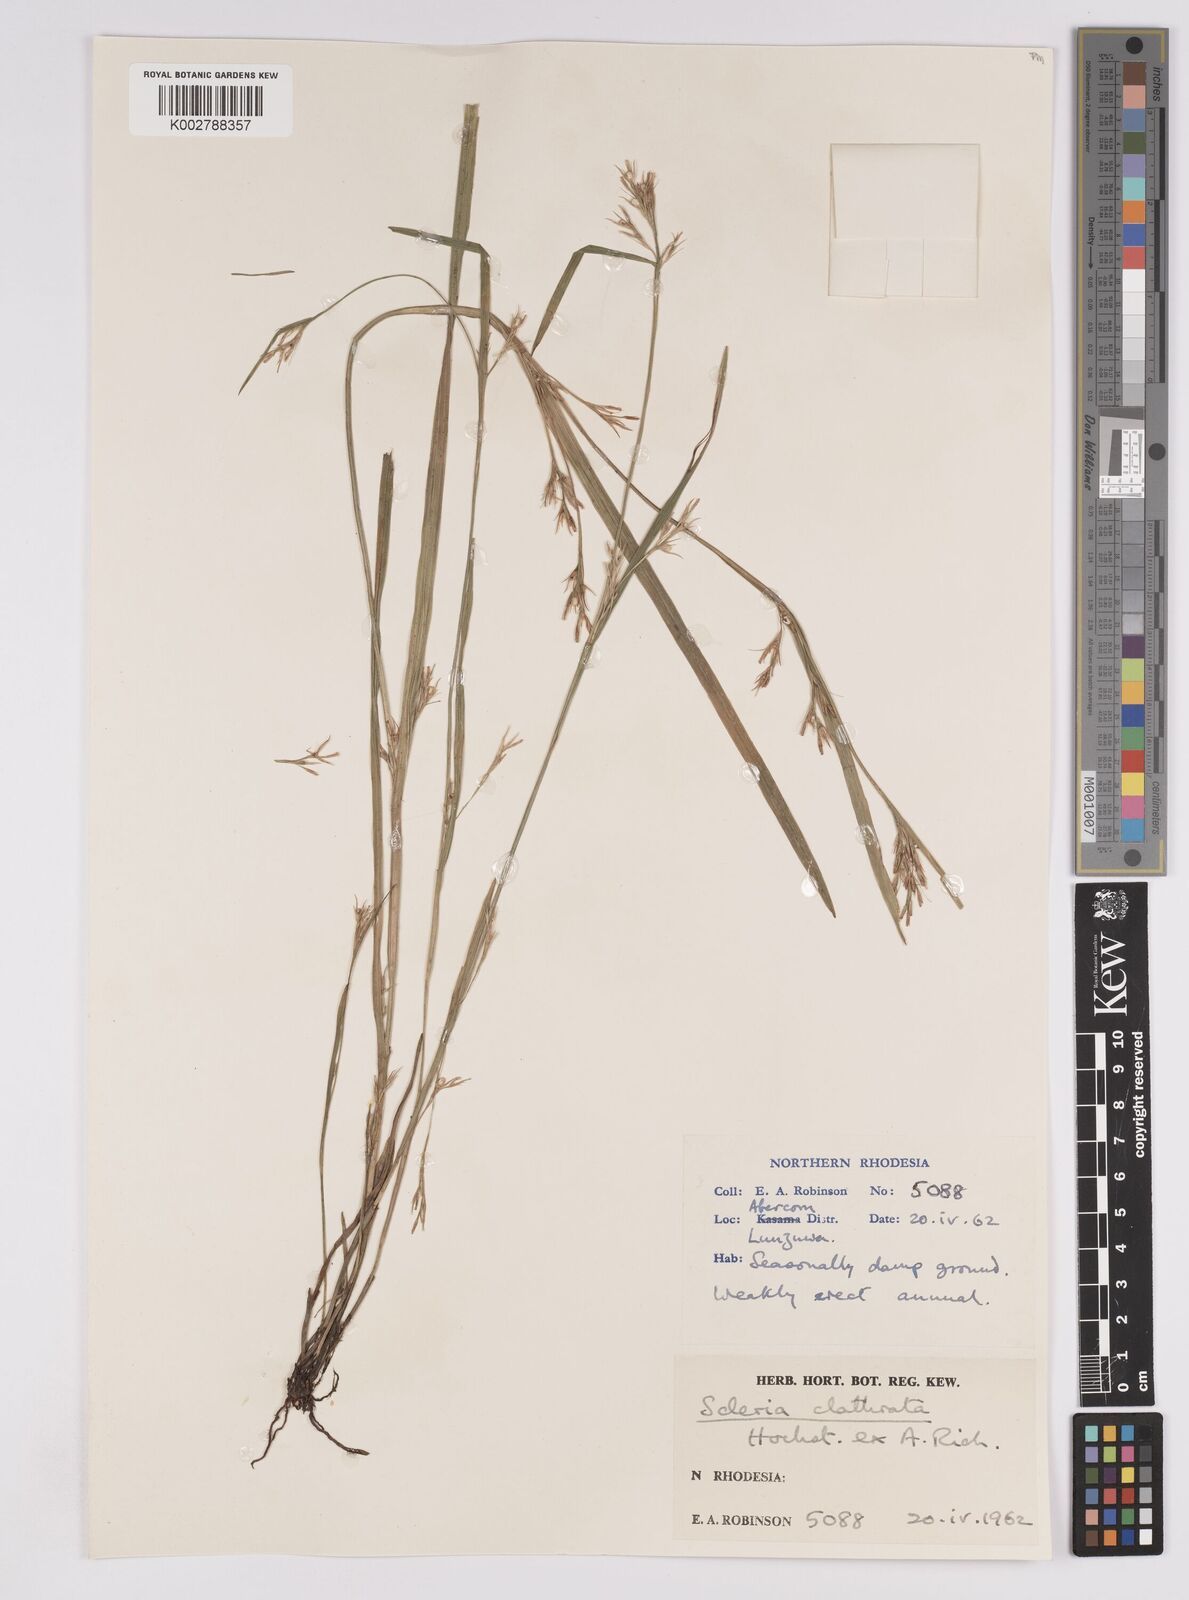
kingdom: Plantae
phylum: Tracheophyta
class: Liliopsida
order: Poales
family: Cyperaceae
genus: Scleria
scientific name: Scleria clathrata
